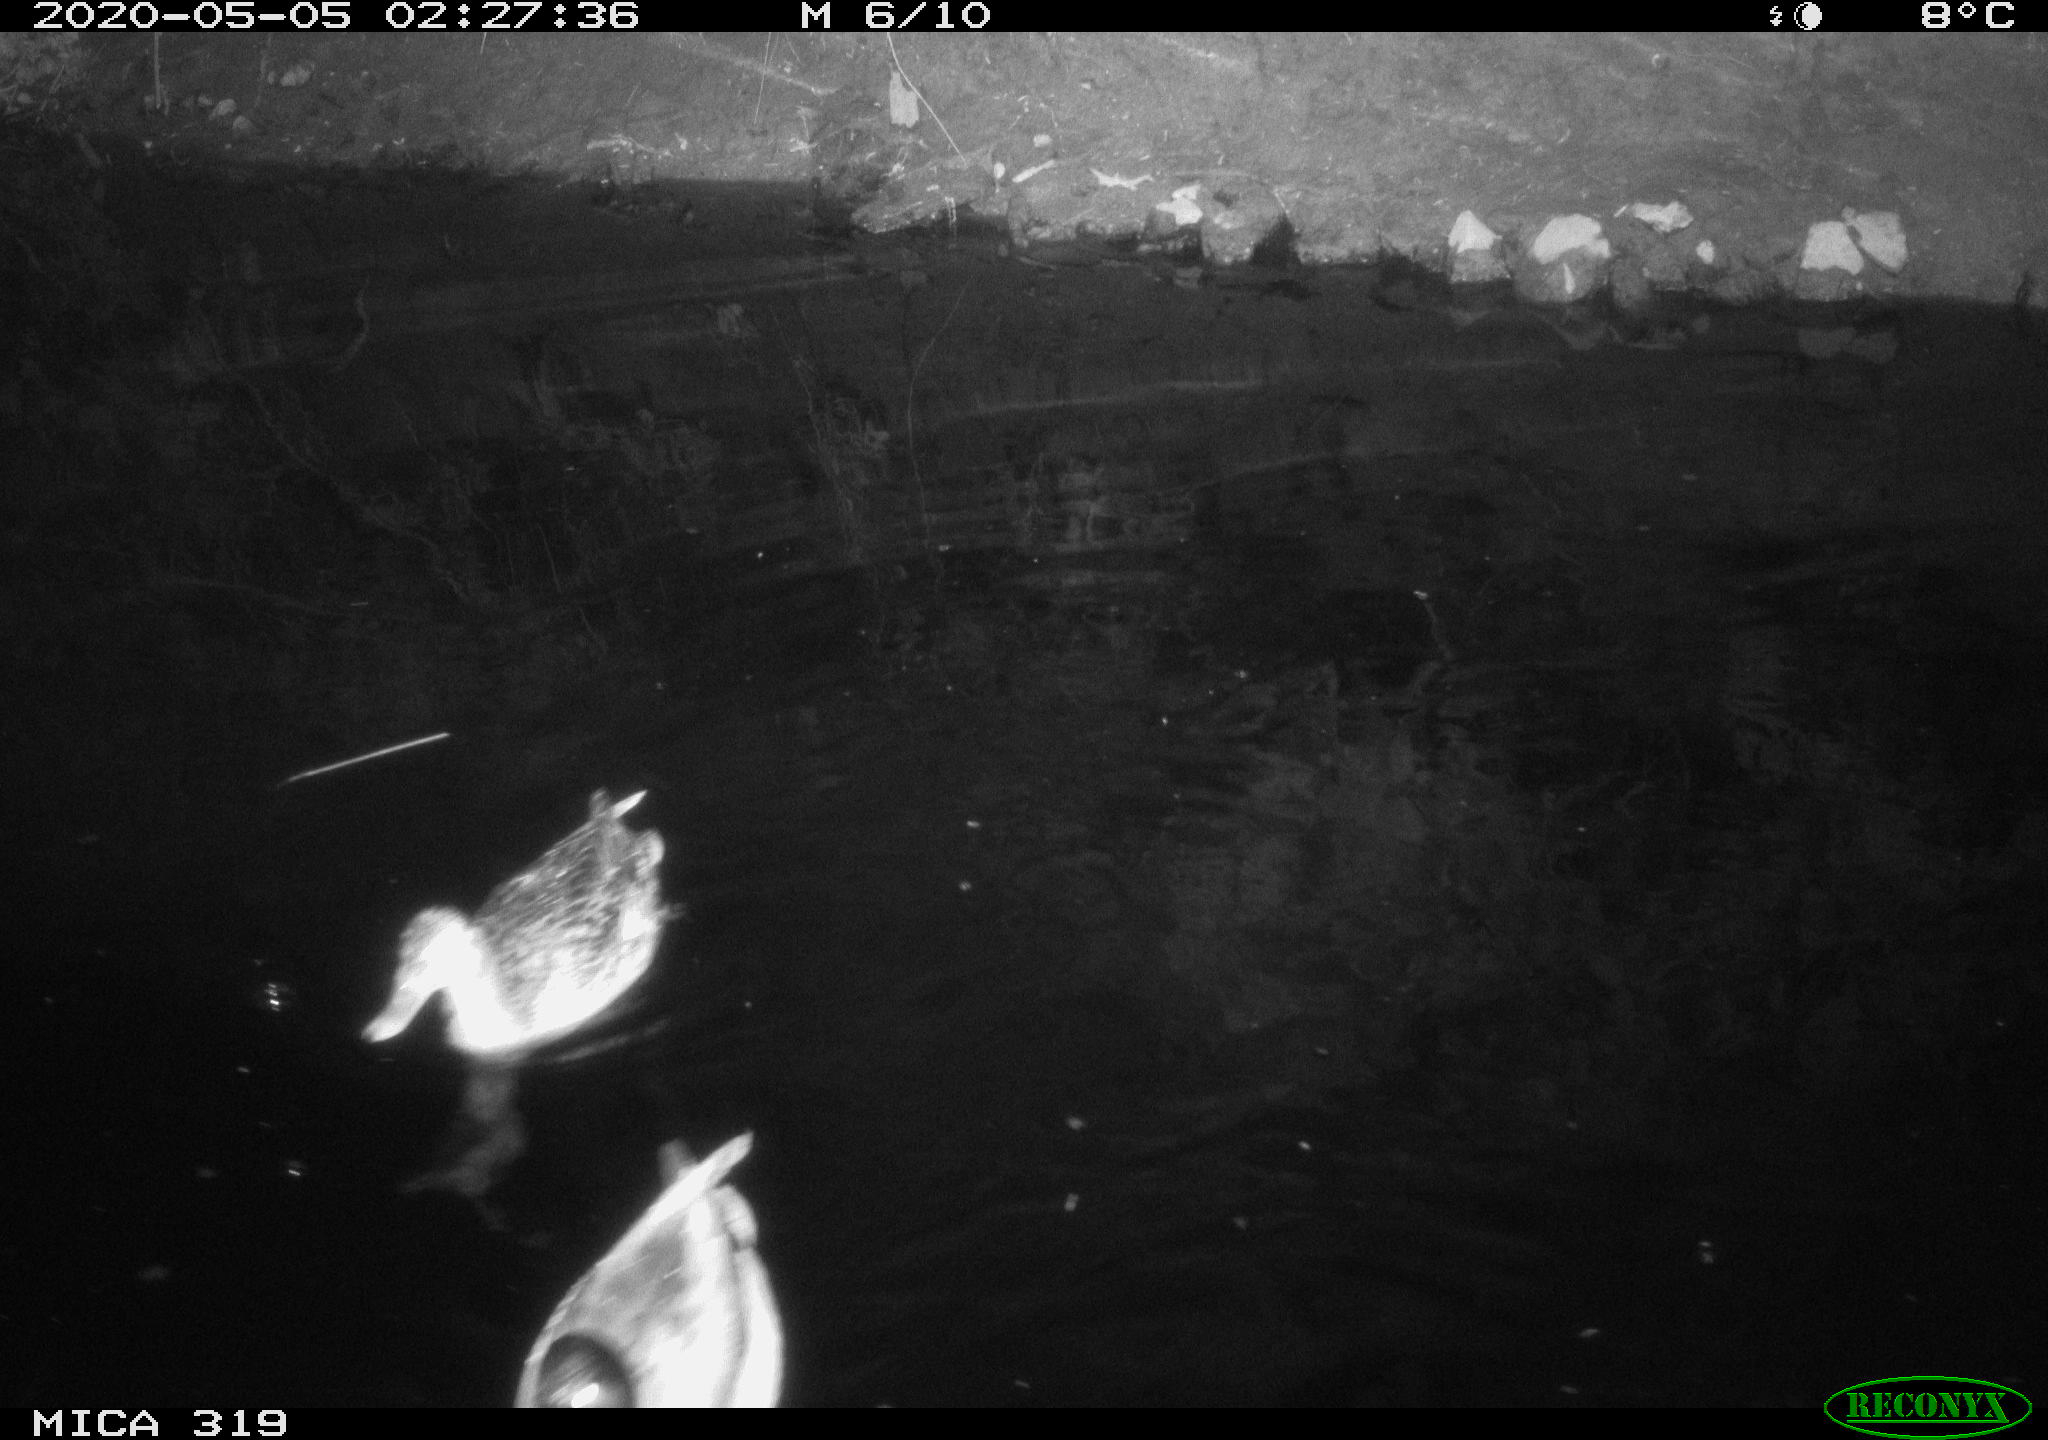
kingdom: Animalia
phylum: Chordata
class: Aves
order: Anseriformes
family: Anatidae
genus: Anas
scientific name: Anas platyrhynchos
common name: Mallard
